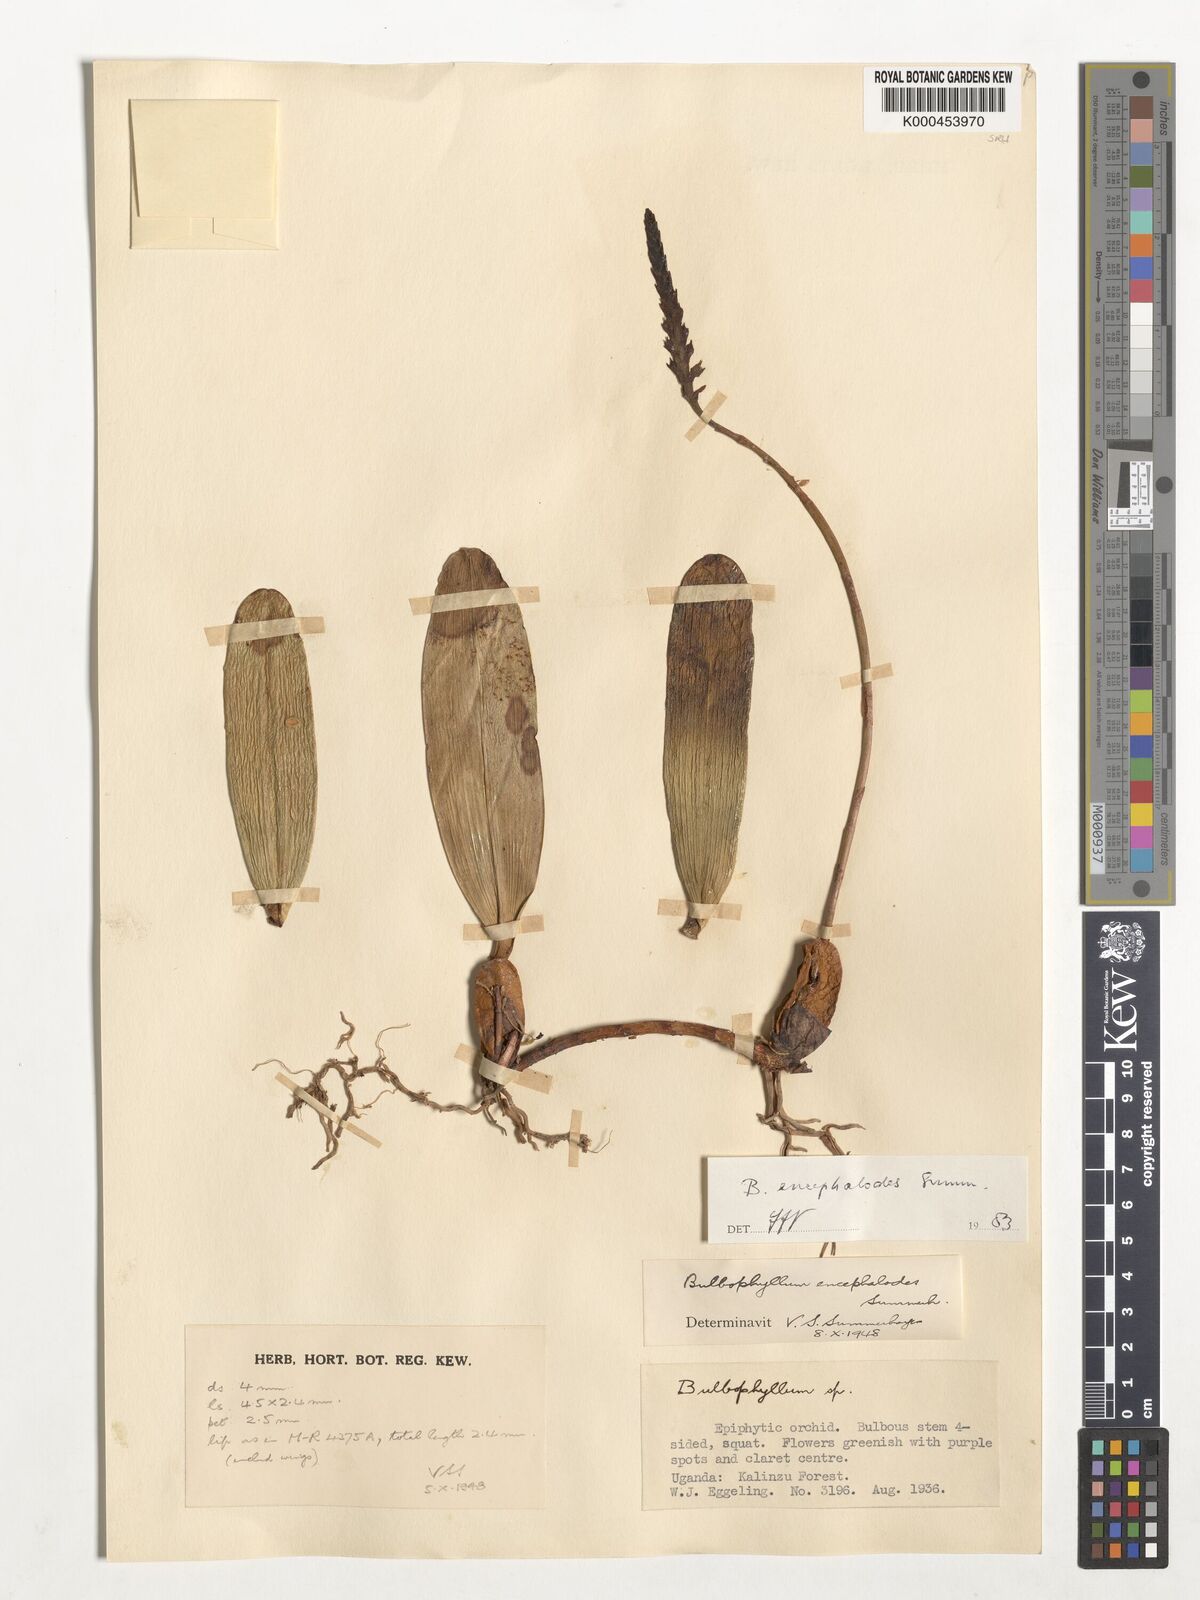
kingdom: Plantae
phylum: Tracheophyta
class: Liliopsida
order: Asparagales
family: Orchidaceae
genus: Bulbophyllum
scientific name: Bulbophyllum encephalodes
